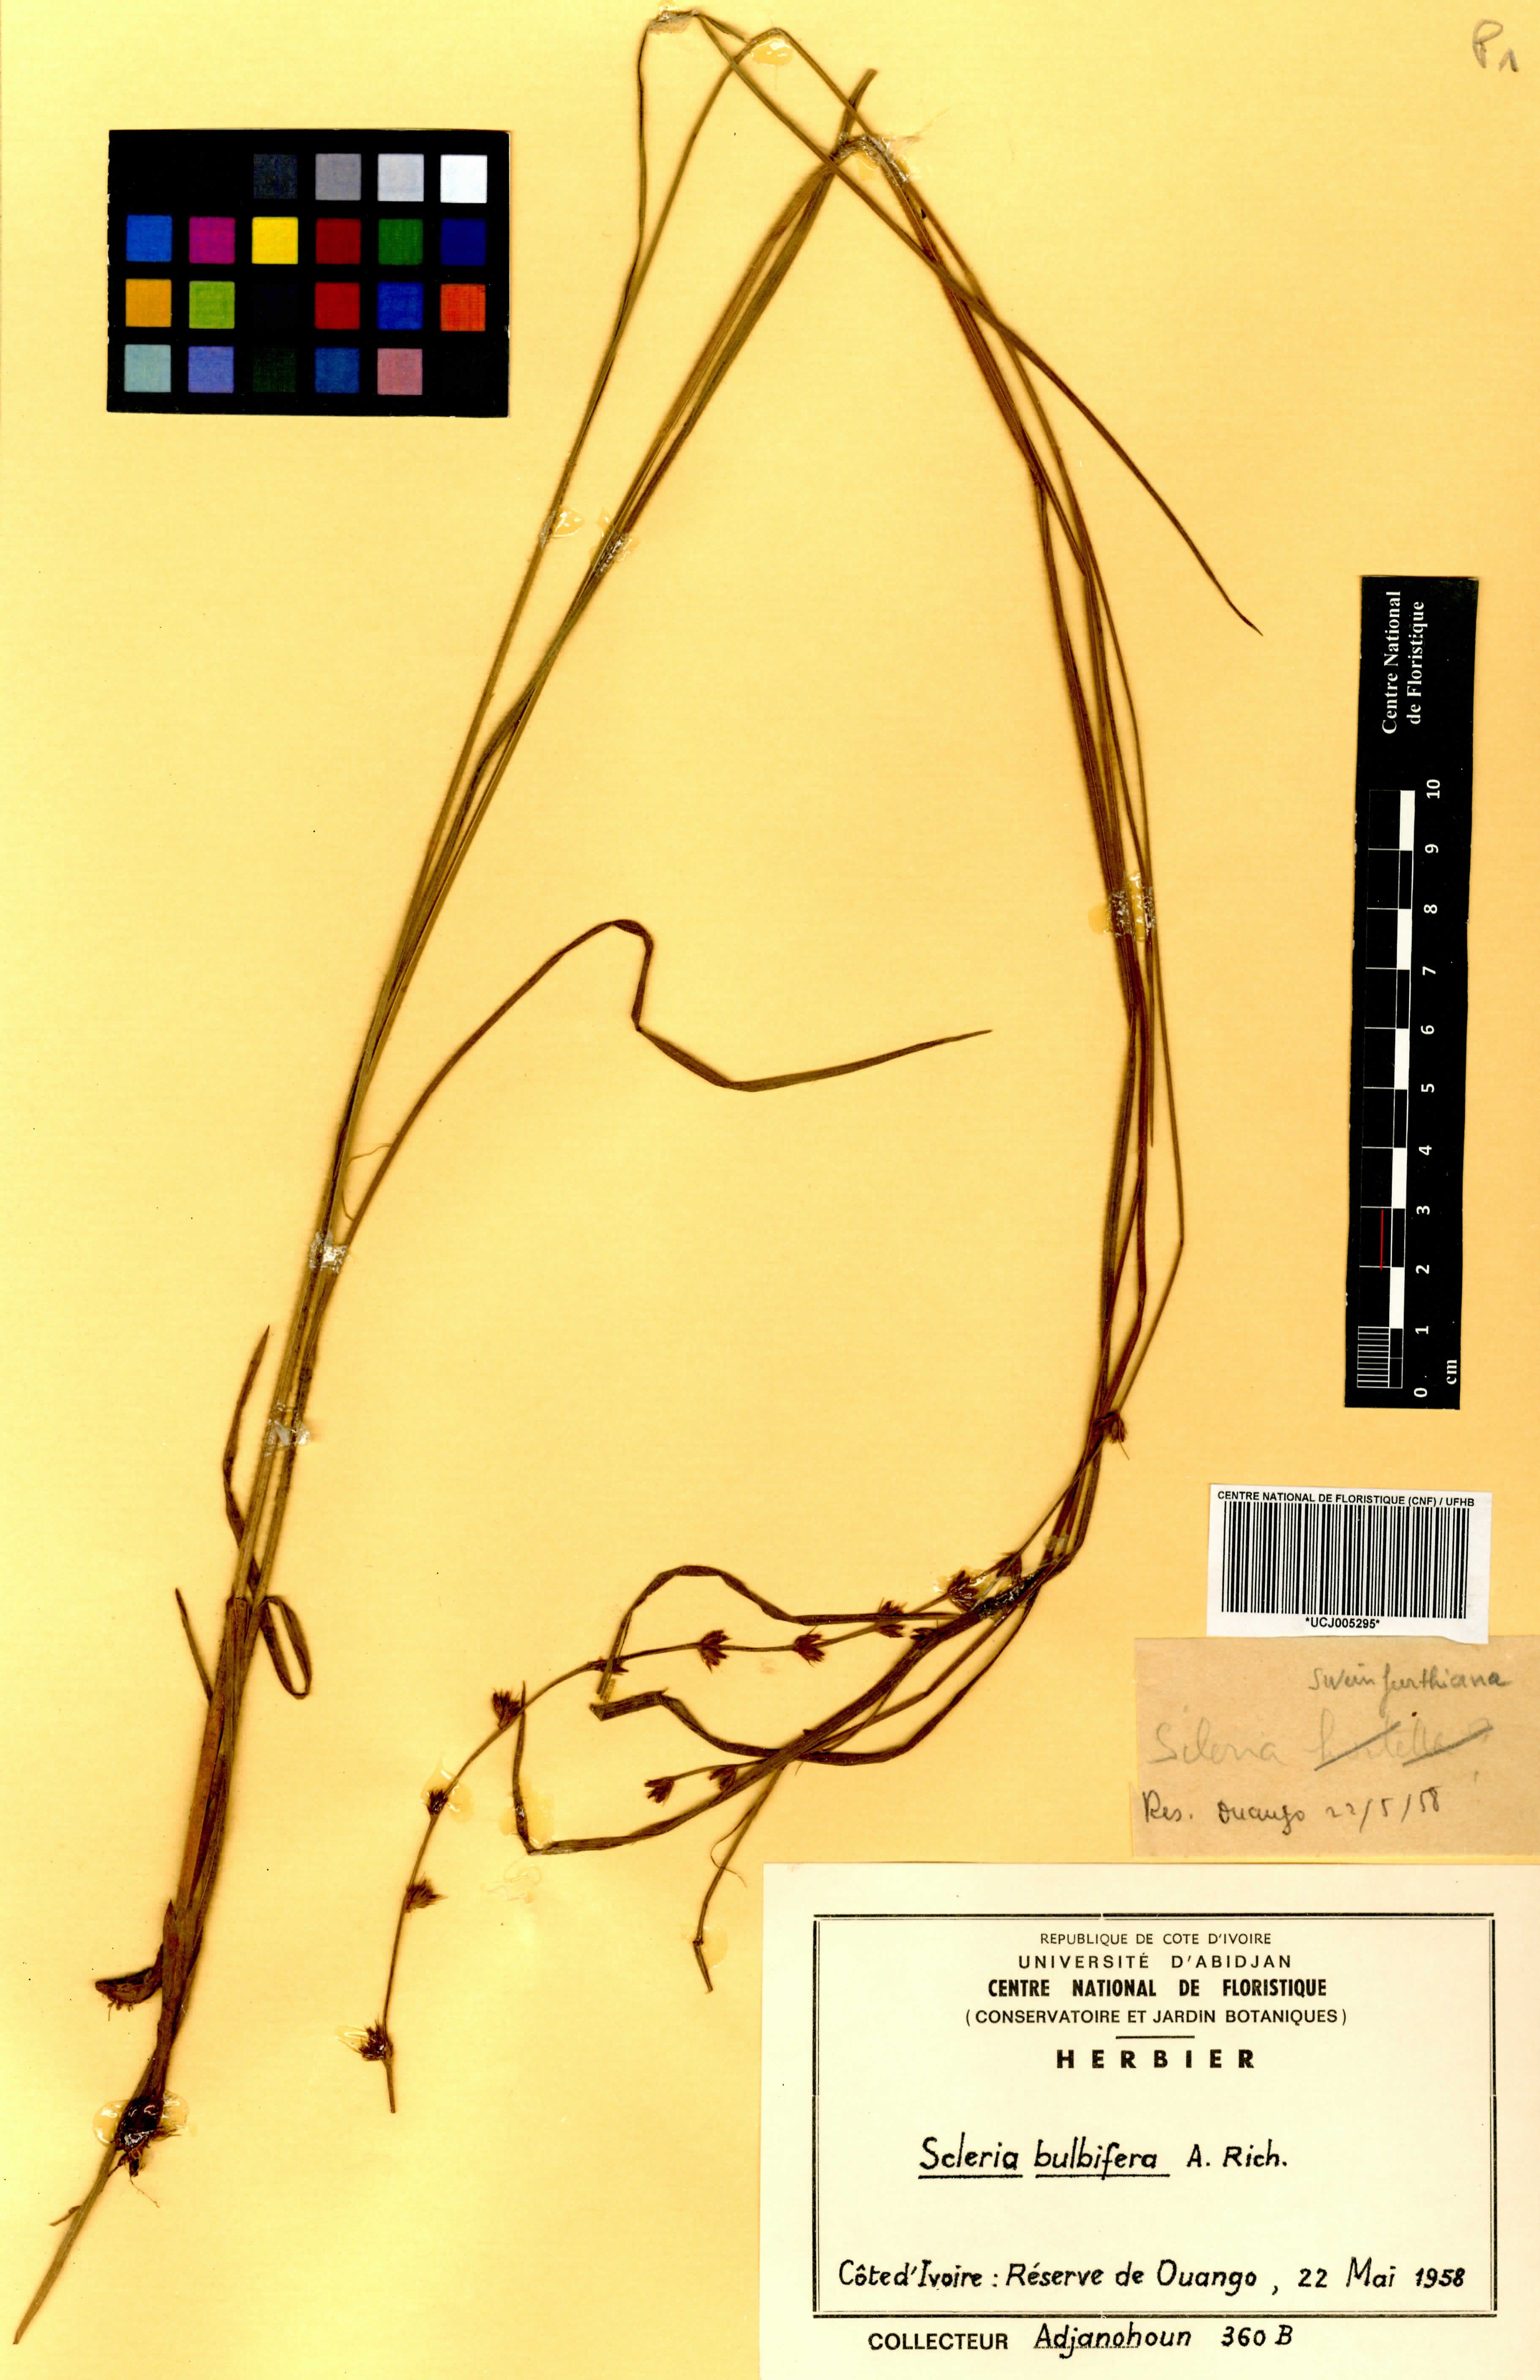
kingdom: Plantae
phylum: Tracheophyta
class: Liliopsida
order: Poales
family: Cyperaceae
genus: Scleria
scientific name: Scleria bulbifera
